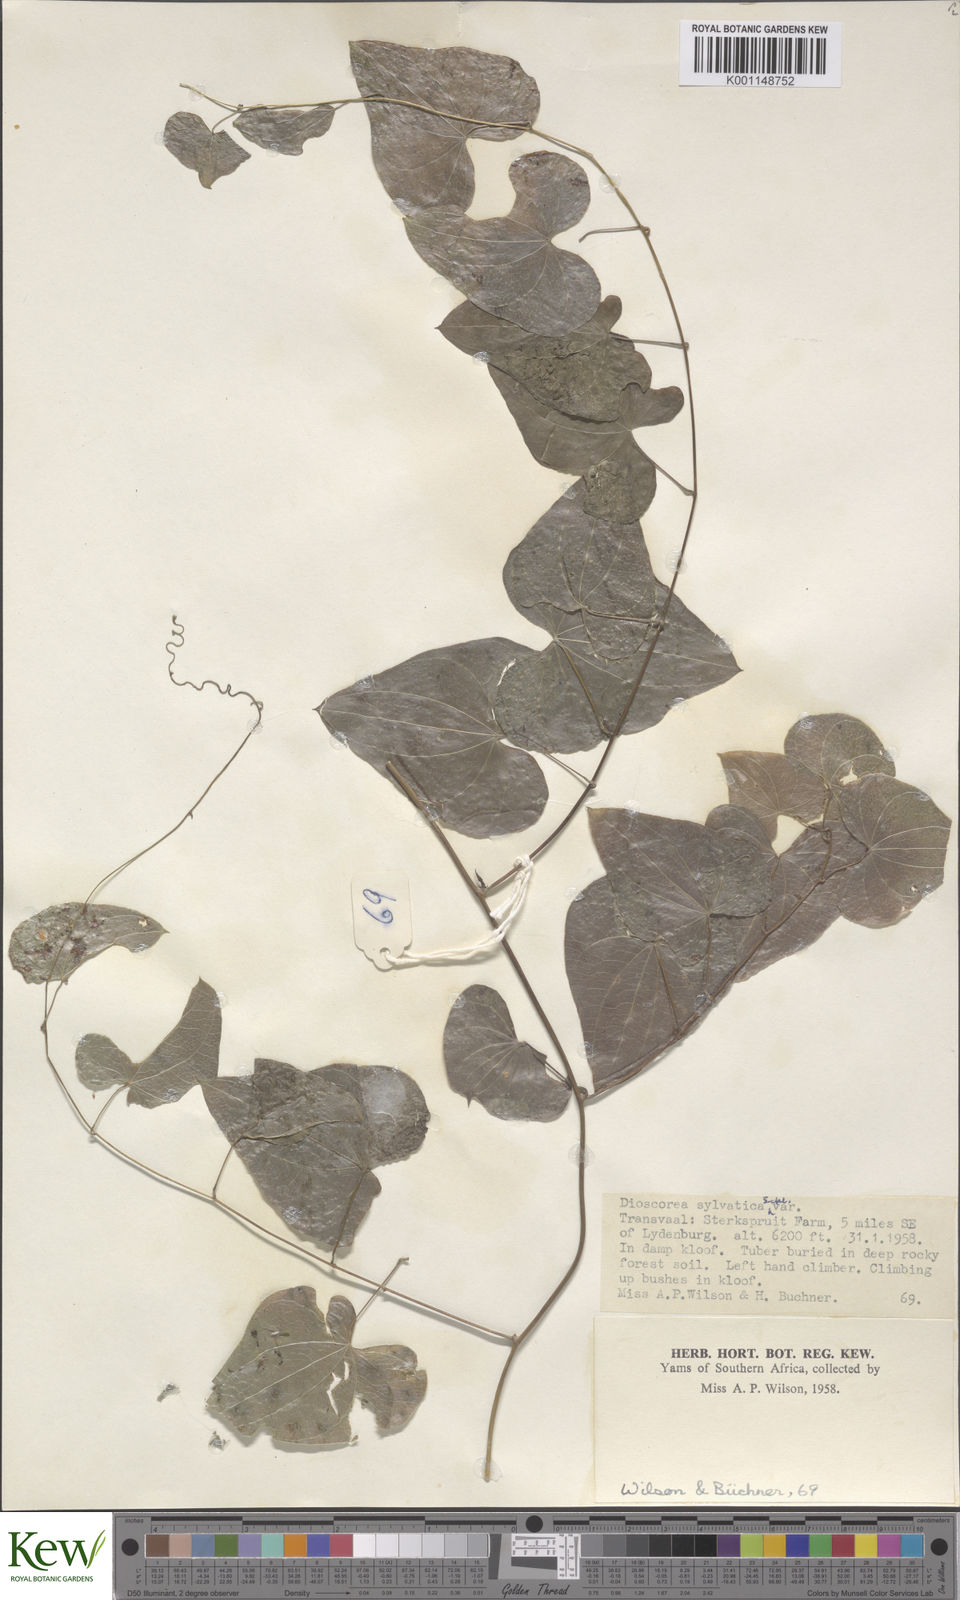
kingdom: Plantae
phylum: Tracheophyta
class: Liliopsida
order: Dioscoreales
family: Dioscoreaceae
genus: Dioscorea
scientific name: Dioscorea sylvatica
